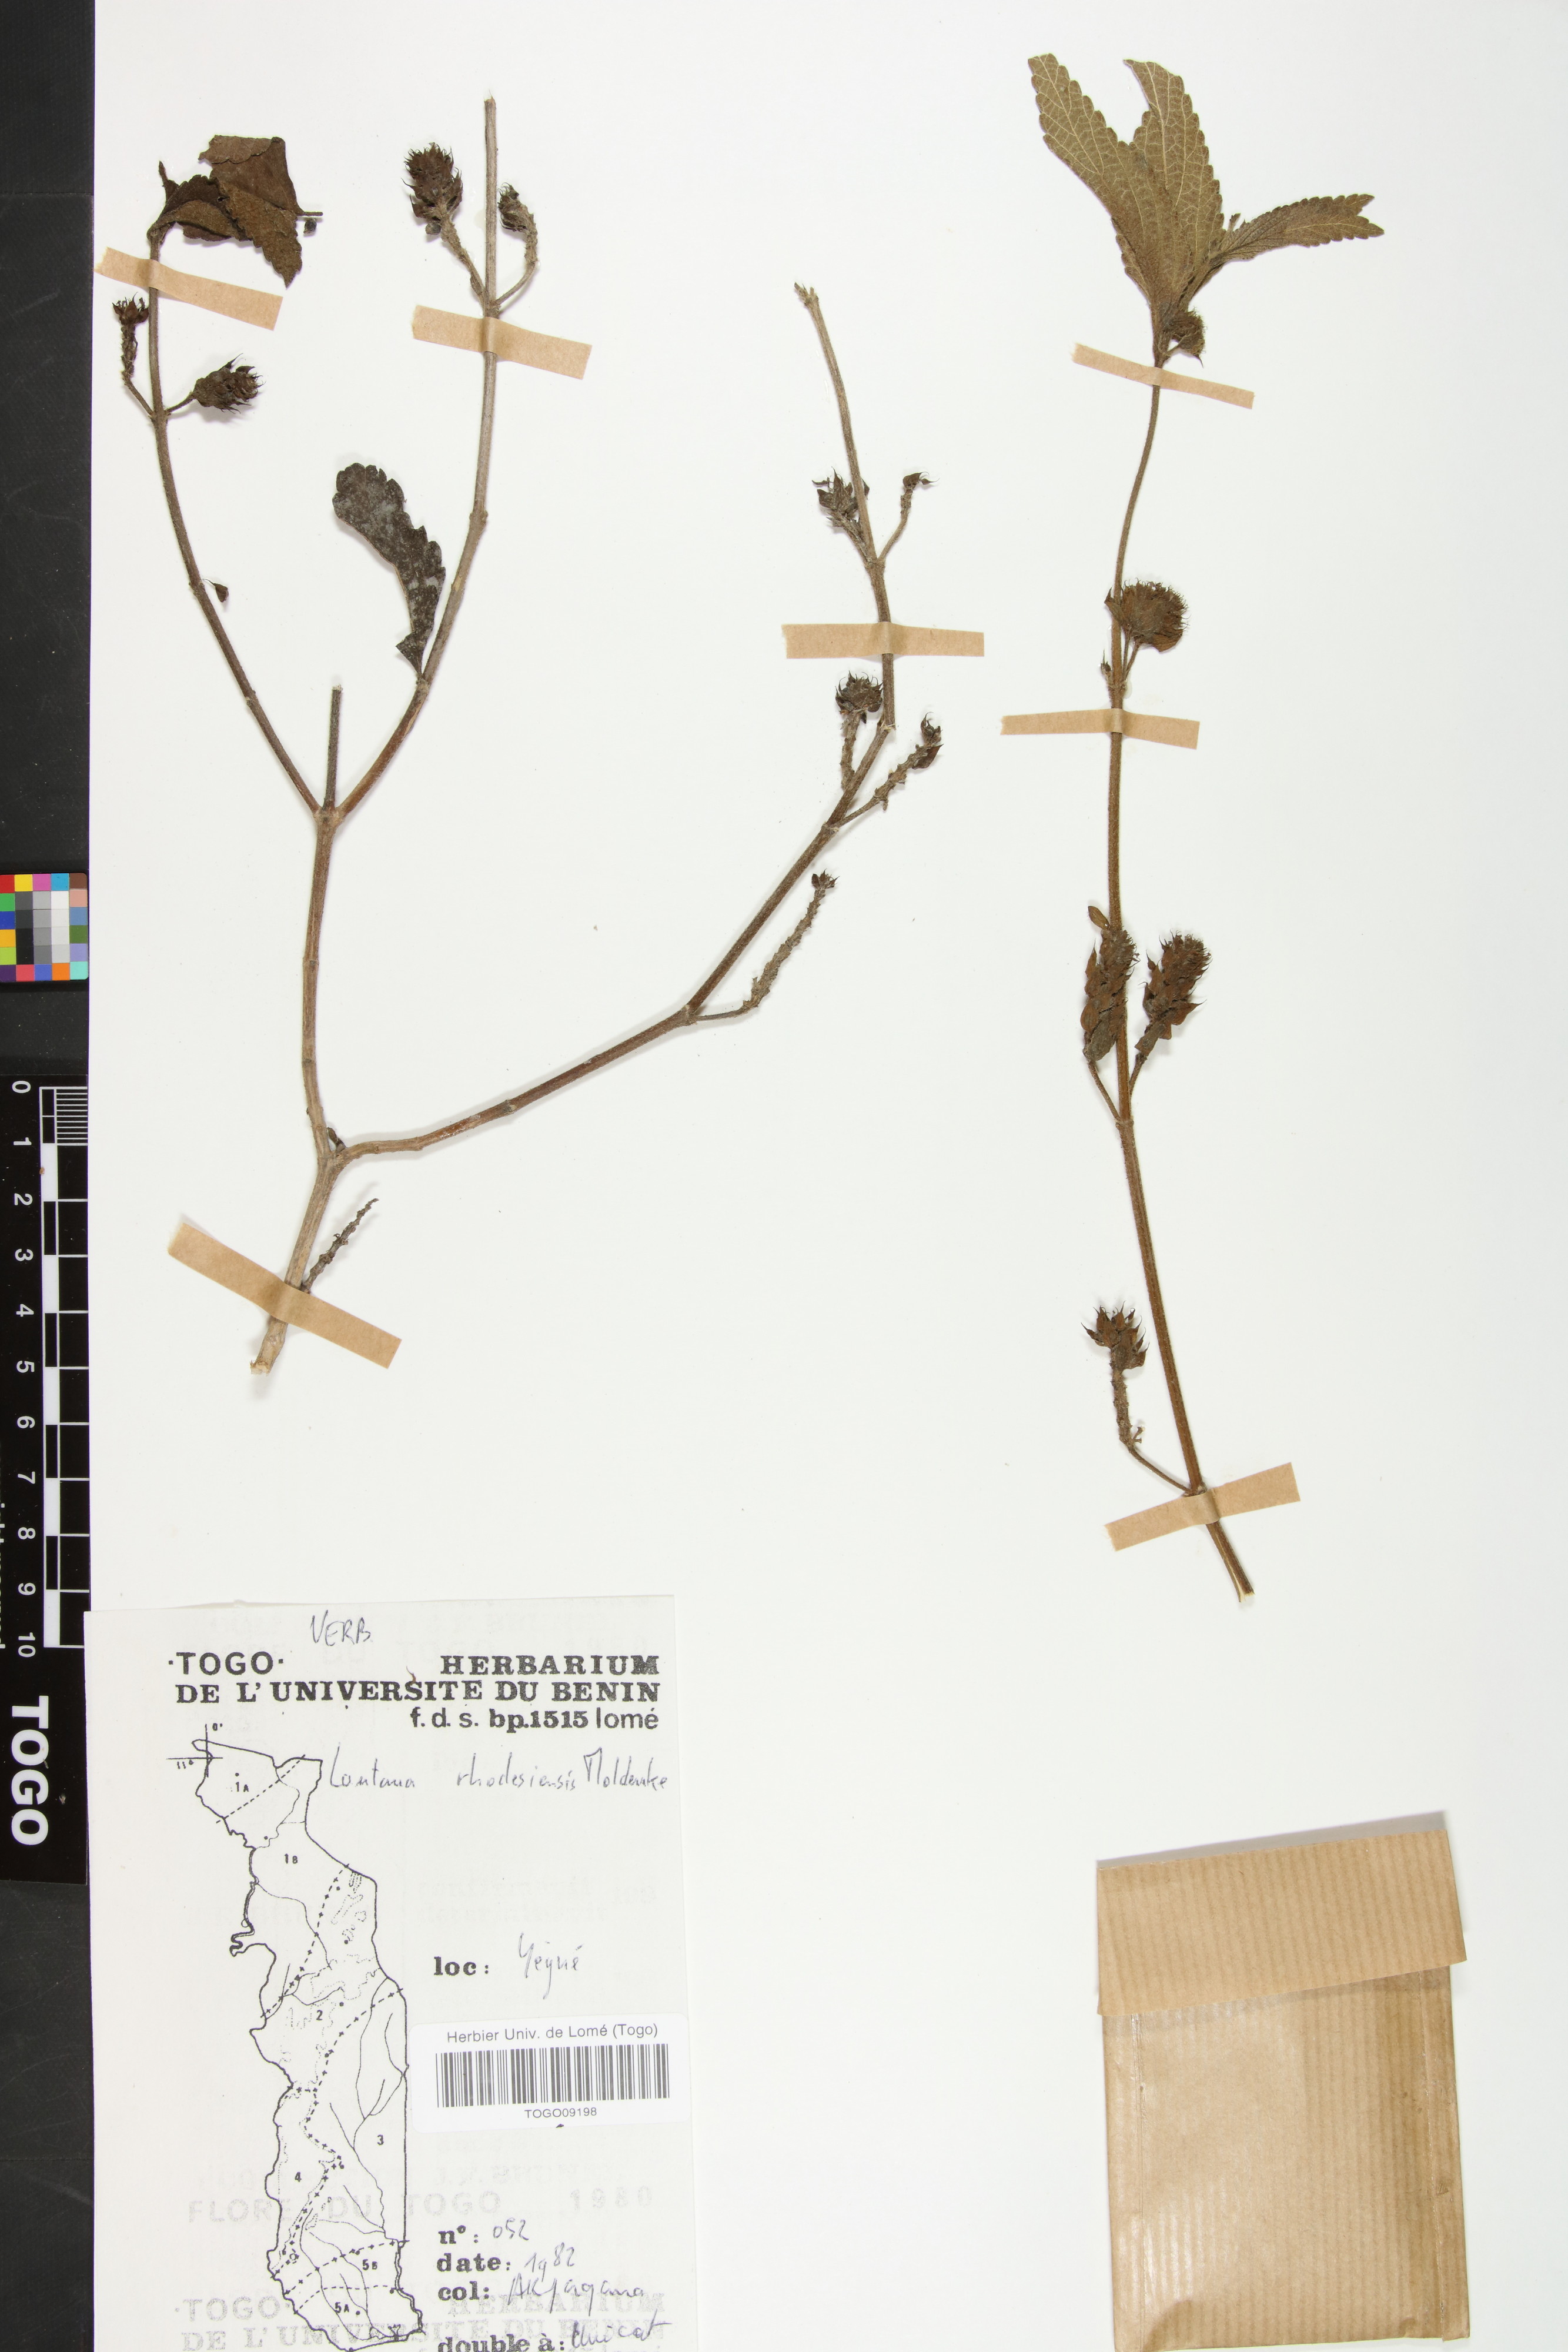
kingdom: Plantae
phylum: Tracheophyta
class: Magnoliopsida
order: Lamiales
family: Verbenaceae
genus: Lantana
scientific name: Lantana ukambensis
